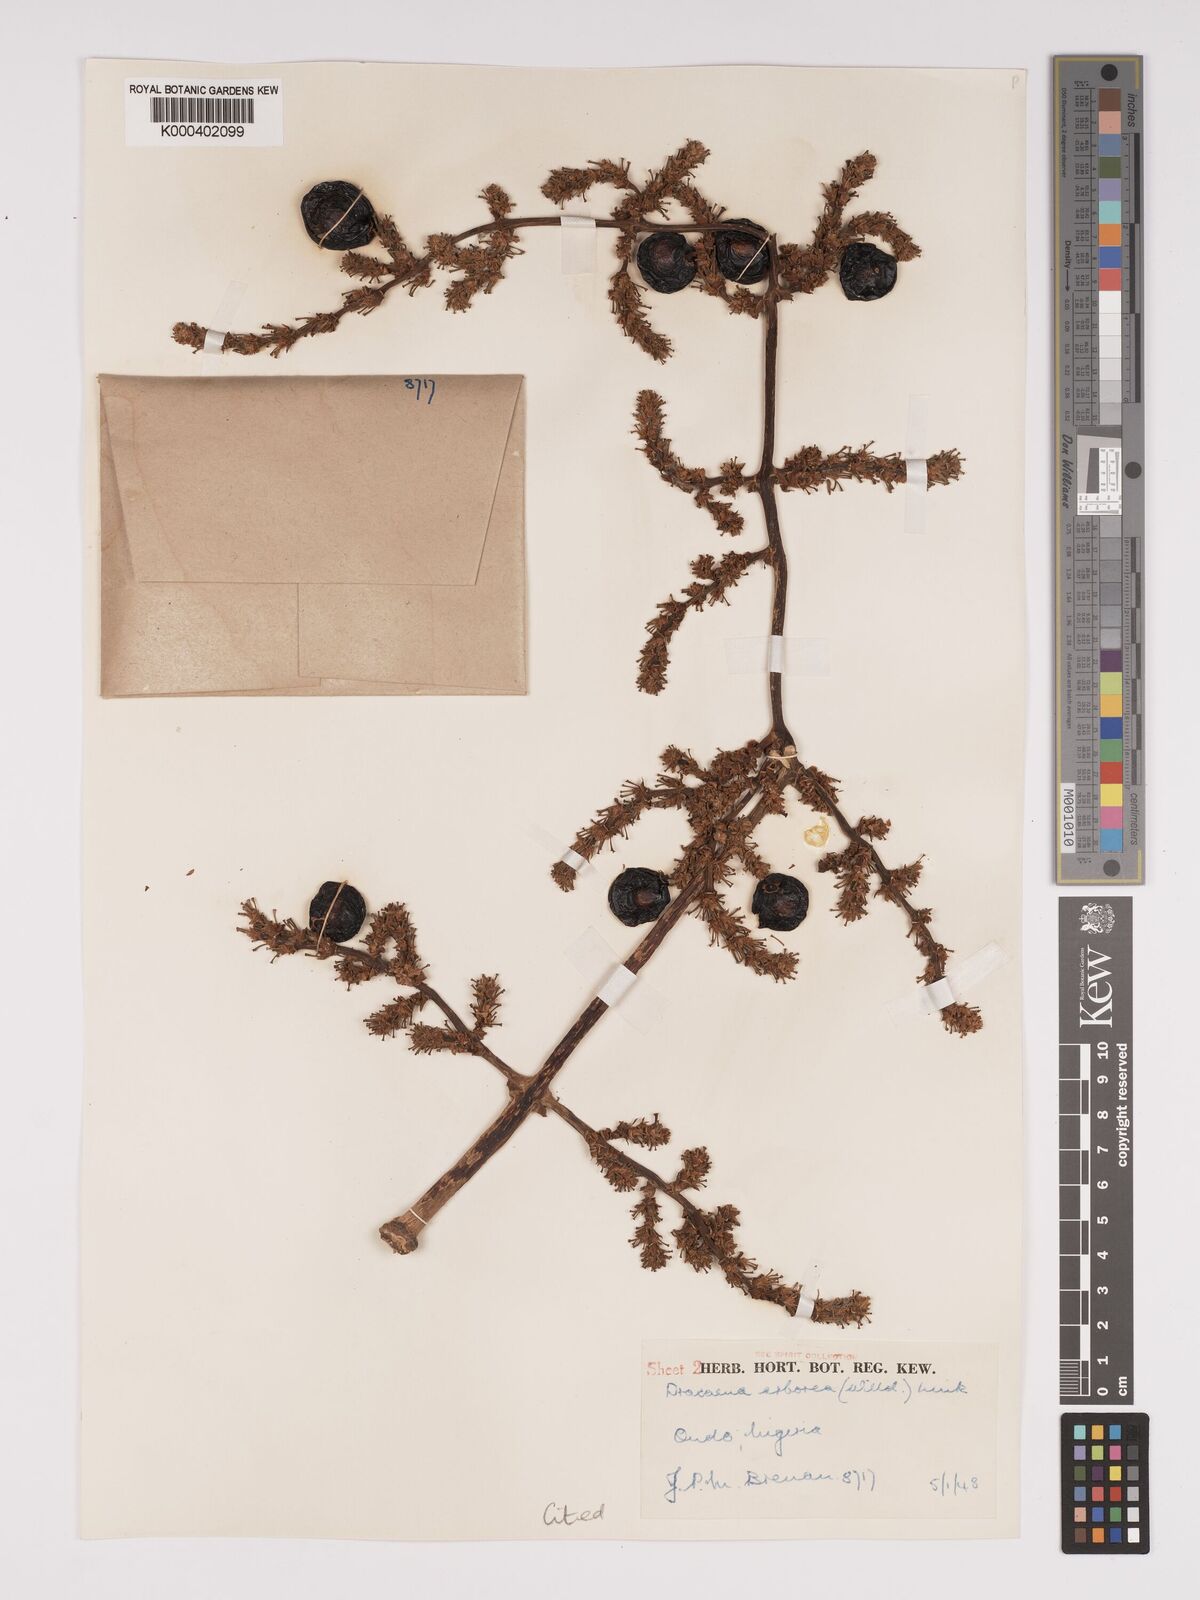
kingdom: Plantae
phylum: Tracheophyta
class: Liliopsida
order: Asparagales
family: Asparagaceae
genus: Dracaena
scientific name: Dracaena arborea
